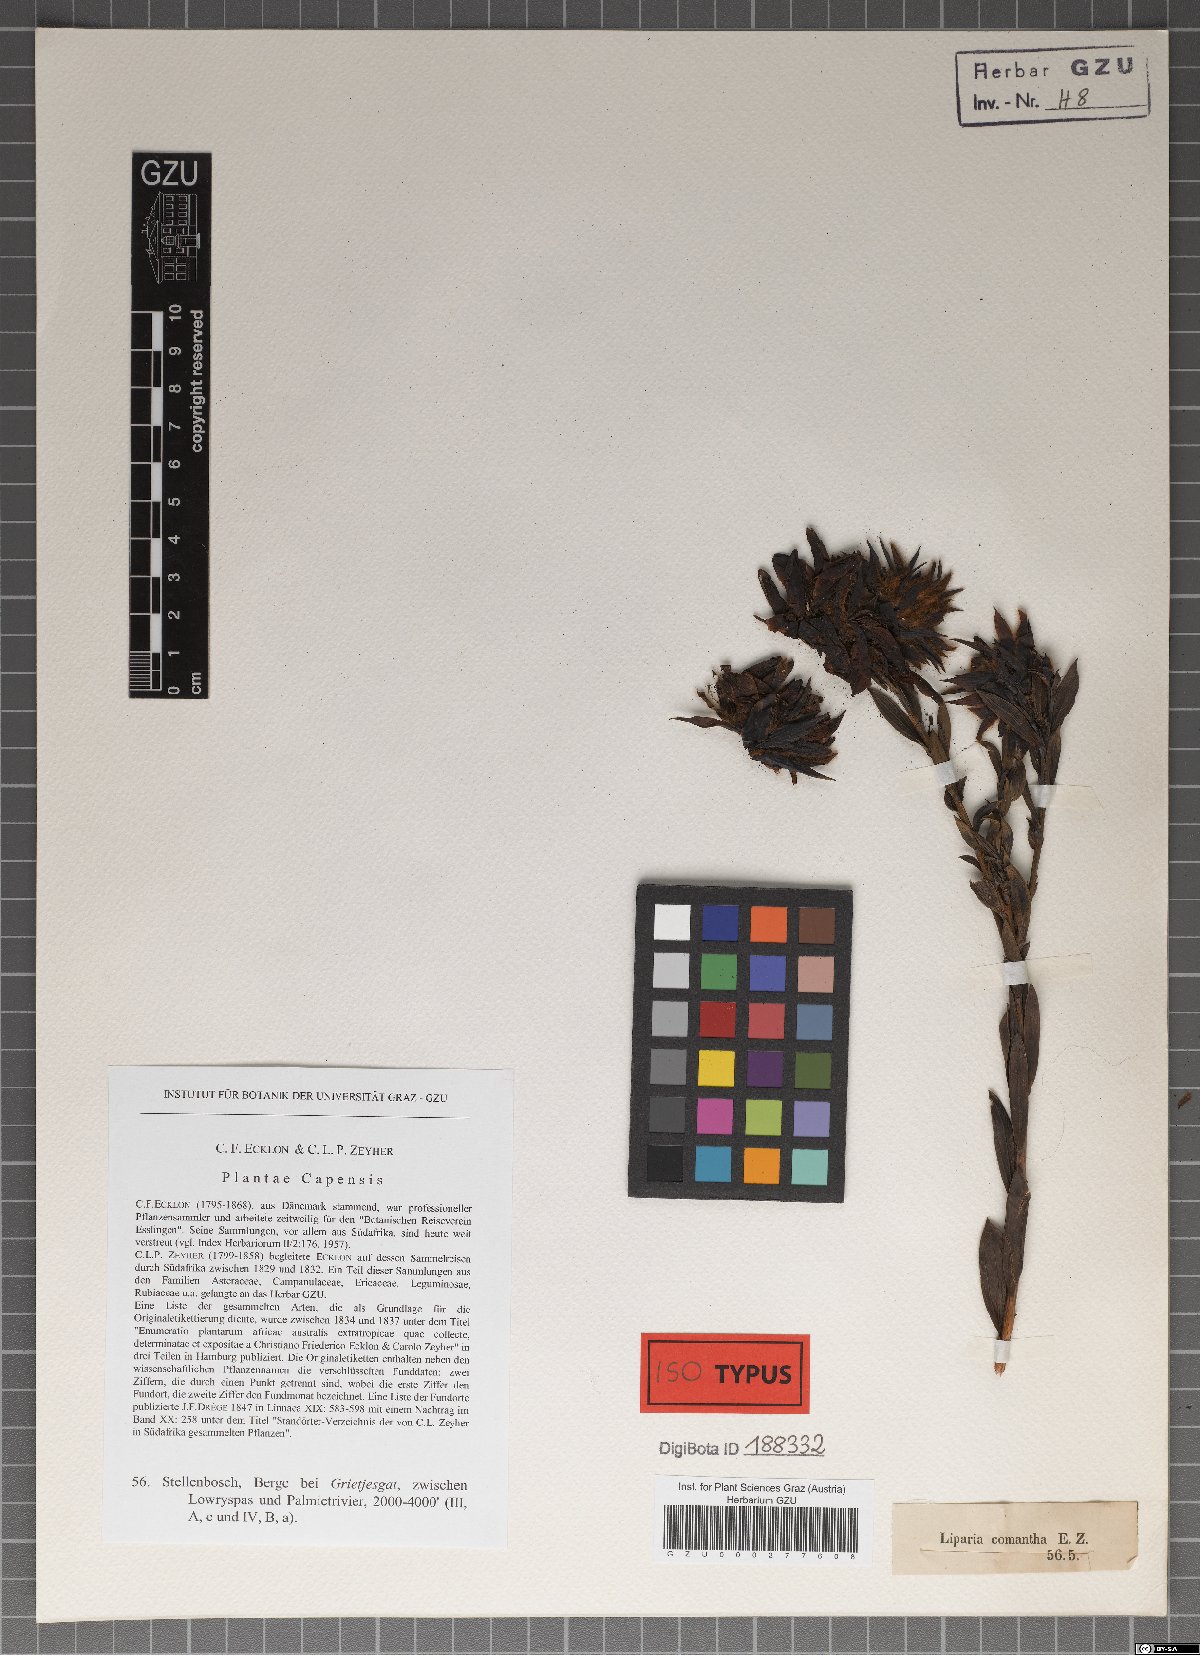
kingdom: Plantae
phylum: Tracheophyta
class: Magnoliopsida
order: Fabales
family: Fabaceae
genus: Liparia
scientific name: Liparia splendens
